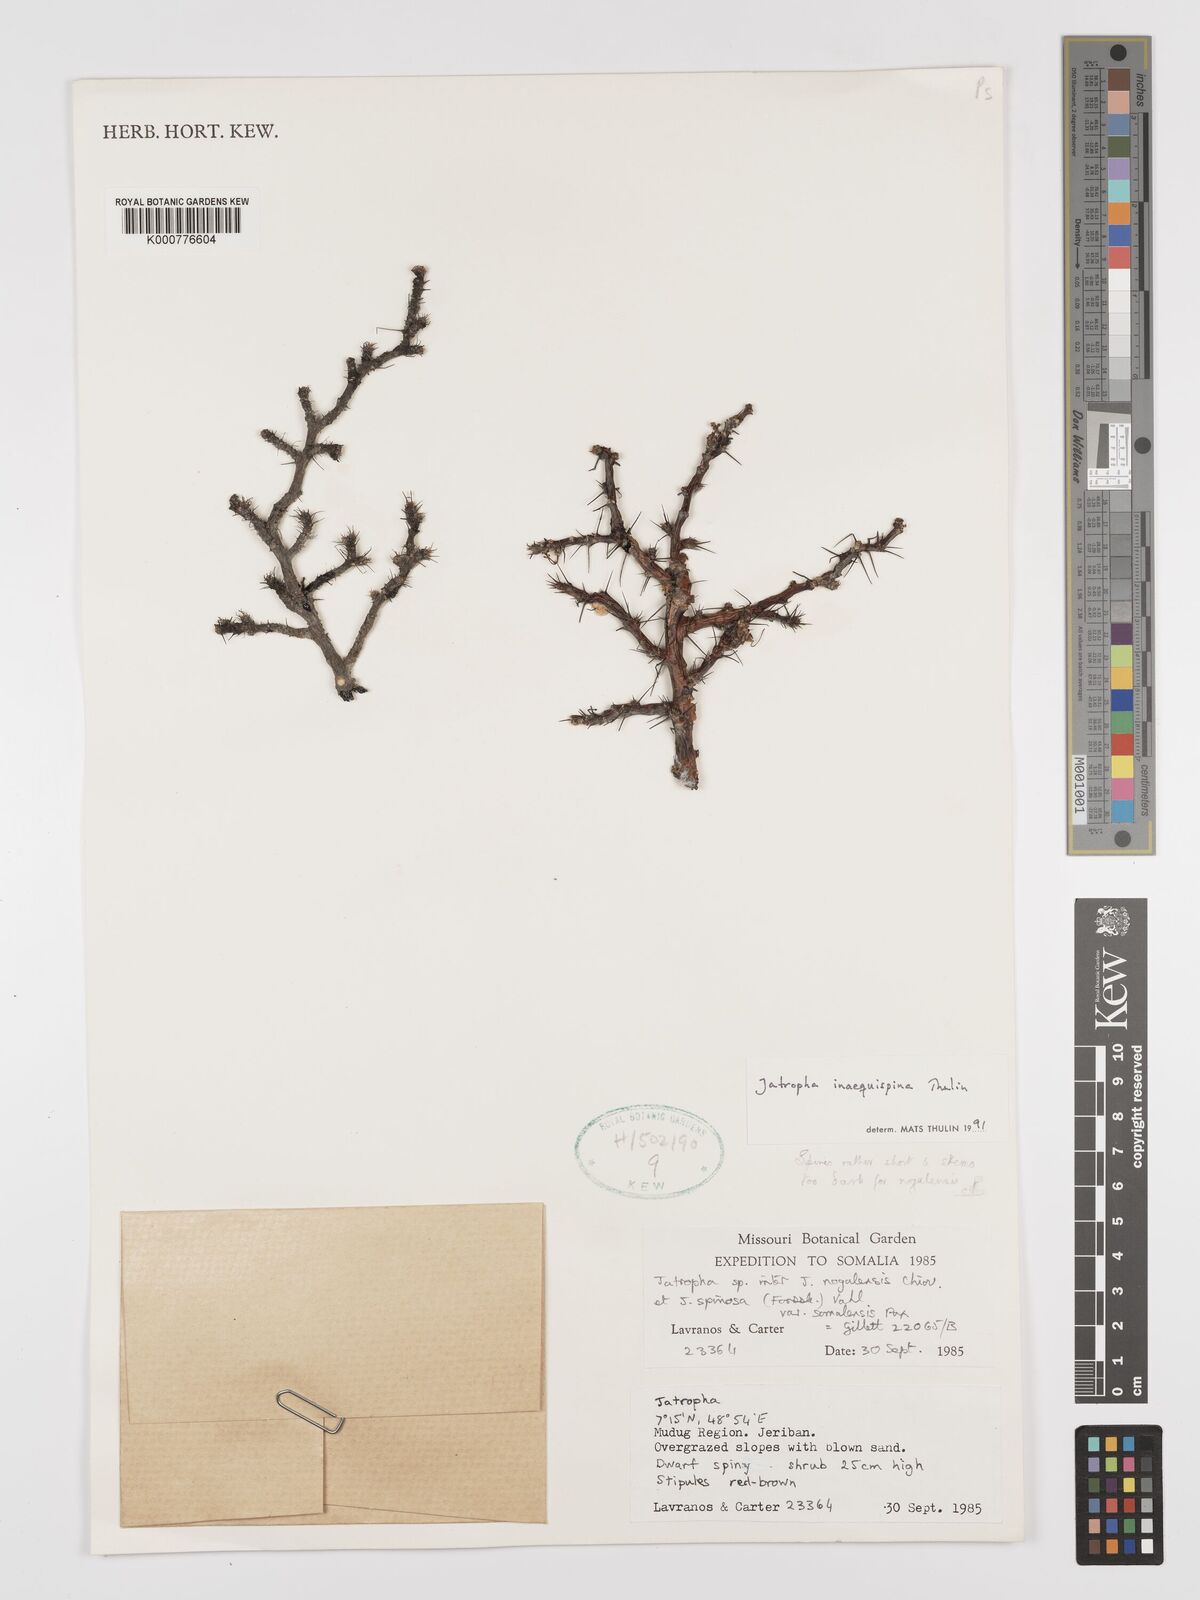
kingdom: Plantae
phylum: Tracheophyta
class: Magnoliopsida
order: Malpighiales
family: Euphorbiaceae
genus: Jatropha
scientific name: Jatropha inaequispina
